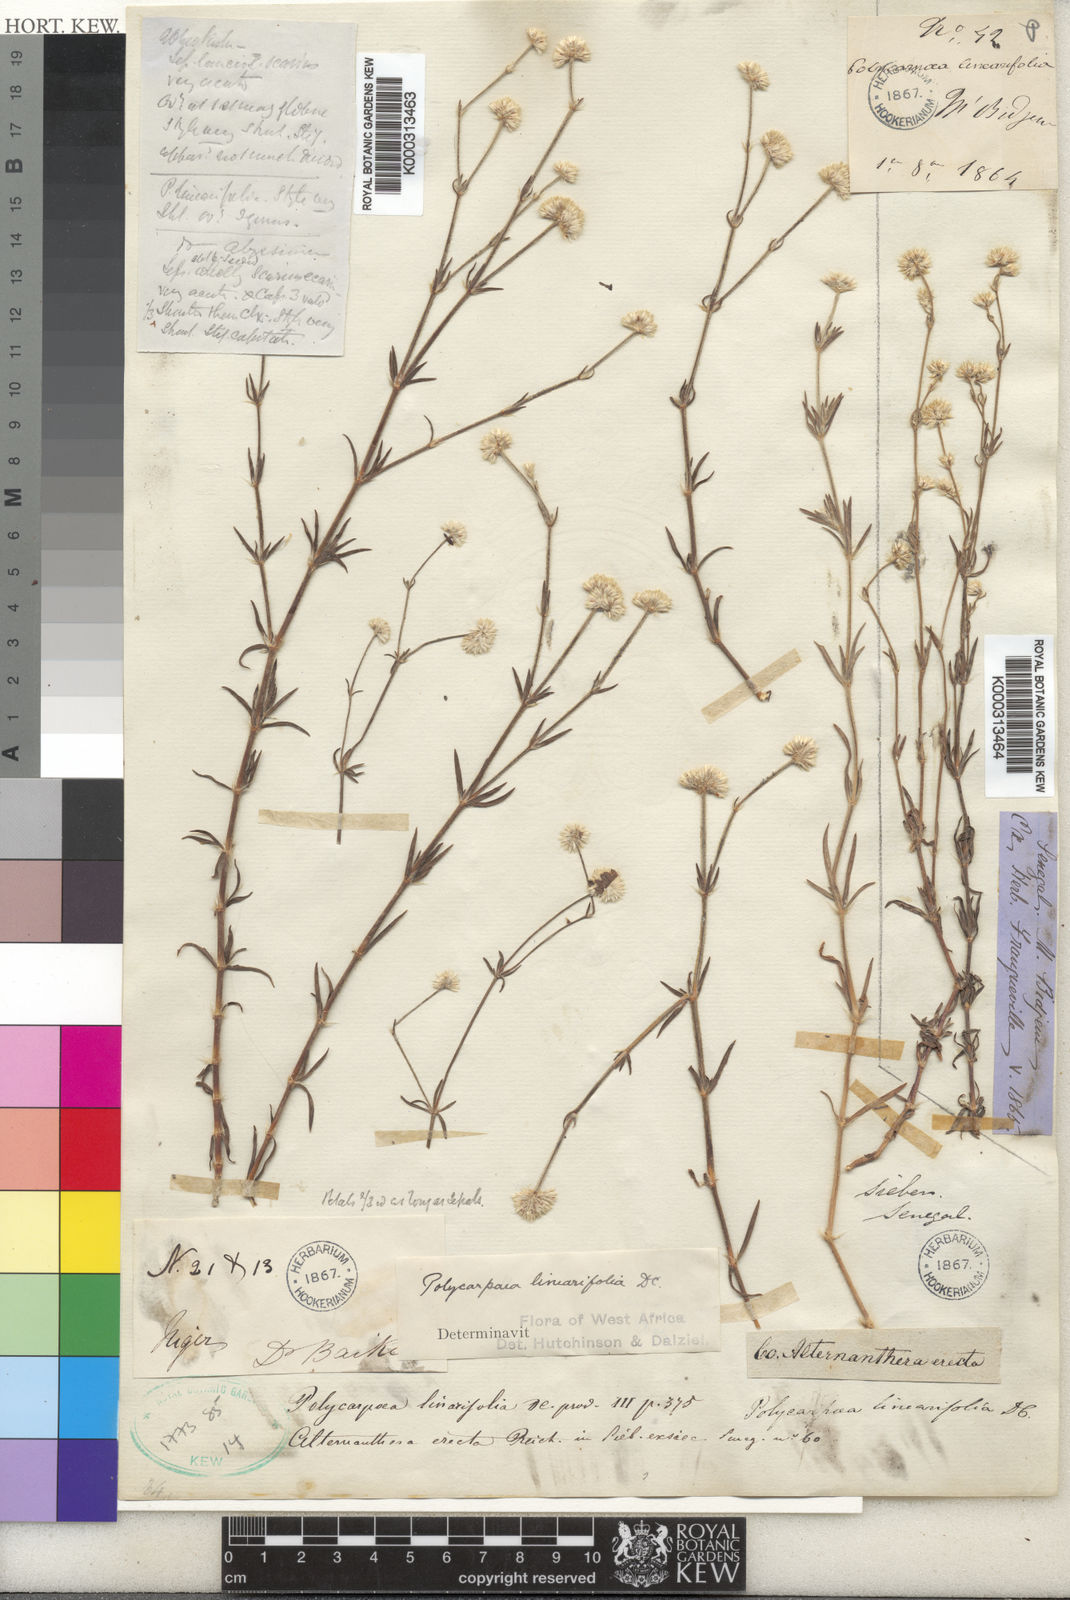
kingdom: Plantae
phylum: Tracheophyta
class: Magnoliopsida
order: Caryophyllales
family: Caryophyllaceae
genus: Polycarpaea
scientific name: Polycarpaea linearifolia
